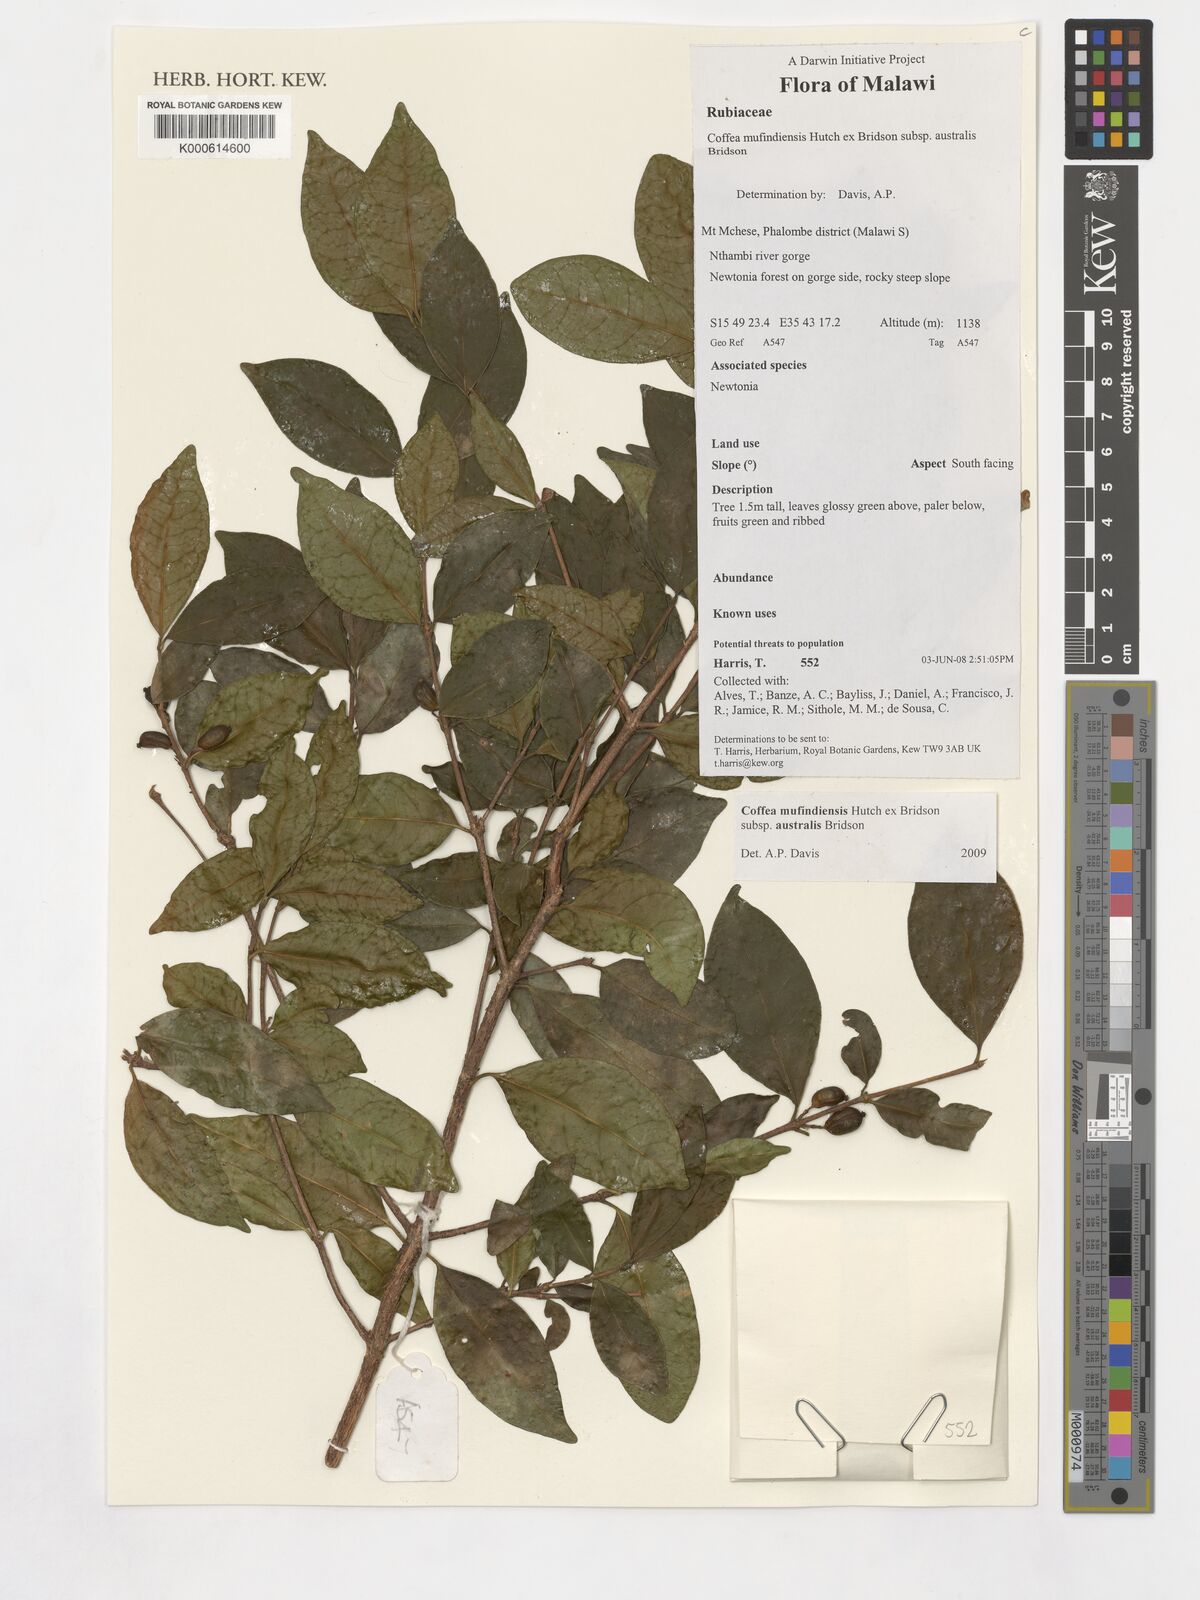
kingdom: Plantae
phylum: Tracheophyta
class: Magnoliopsida
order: Gentianales
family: Rubiaceae
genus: Coffea
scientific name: Coffea mufindiensis
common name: Wild coffee
